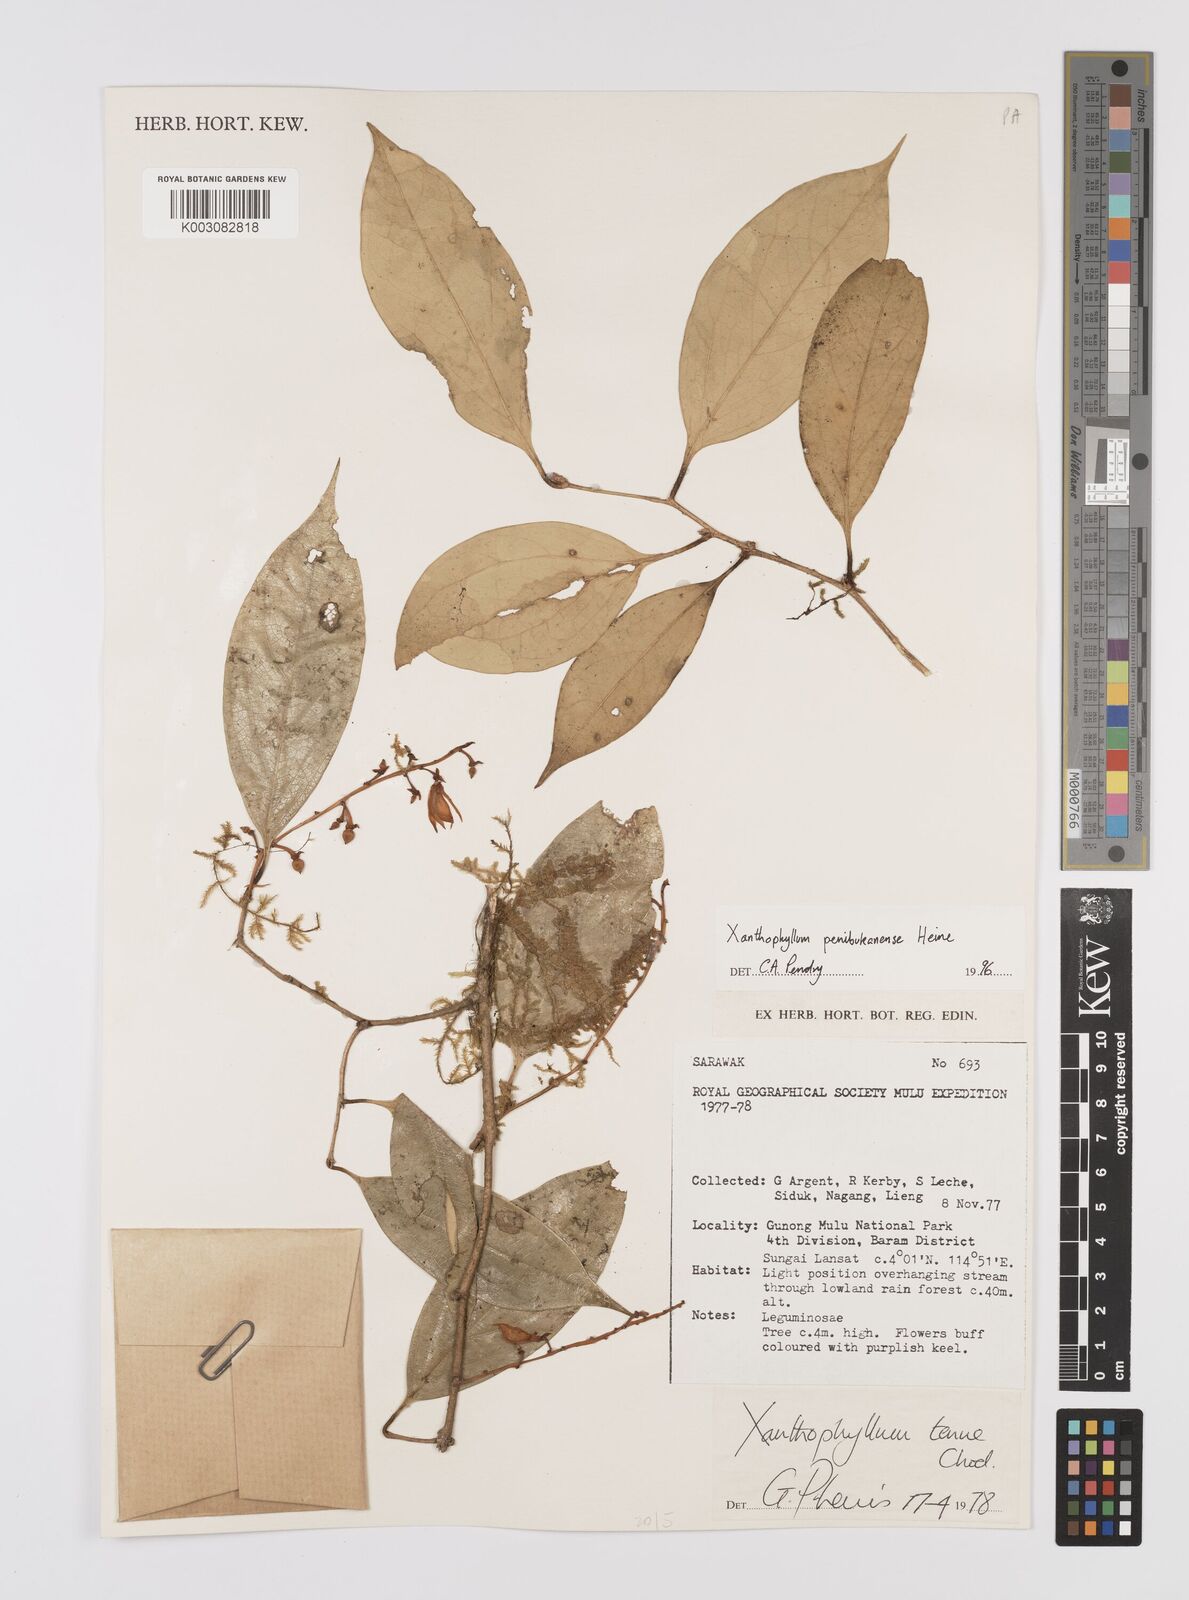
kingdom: Plantae
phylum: Tracheophyta
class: Magnoliopsida
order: Fabales
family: Polygalaceae
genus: Xanthophyllum
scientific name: Xanthophyllum penibukanense
